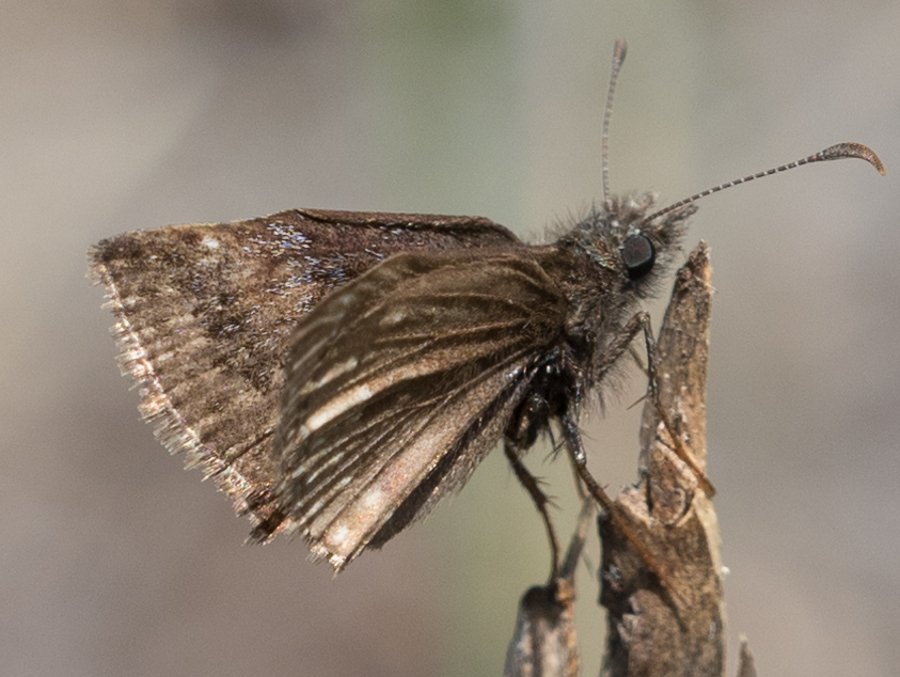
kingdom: Animalia
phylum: Arthropoda
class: Insecta
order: Lepidoptera
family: Hesperiidae
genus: Oarisma
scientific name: Oarisma garita
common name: Garita Skipperling
